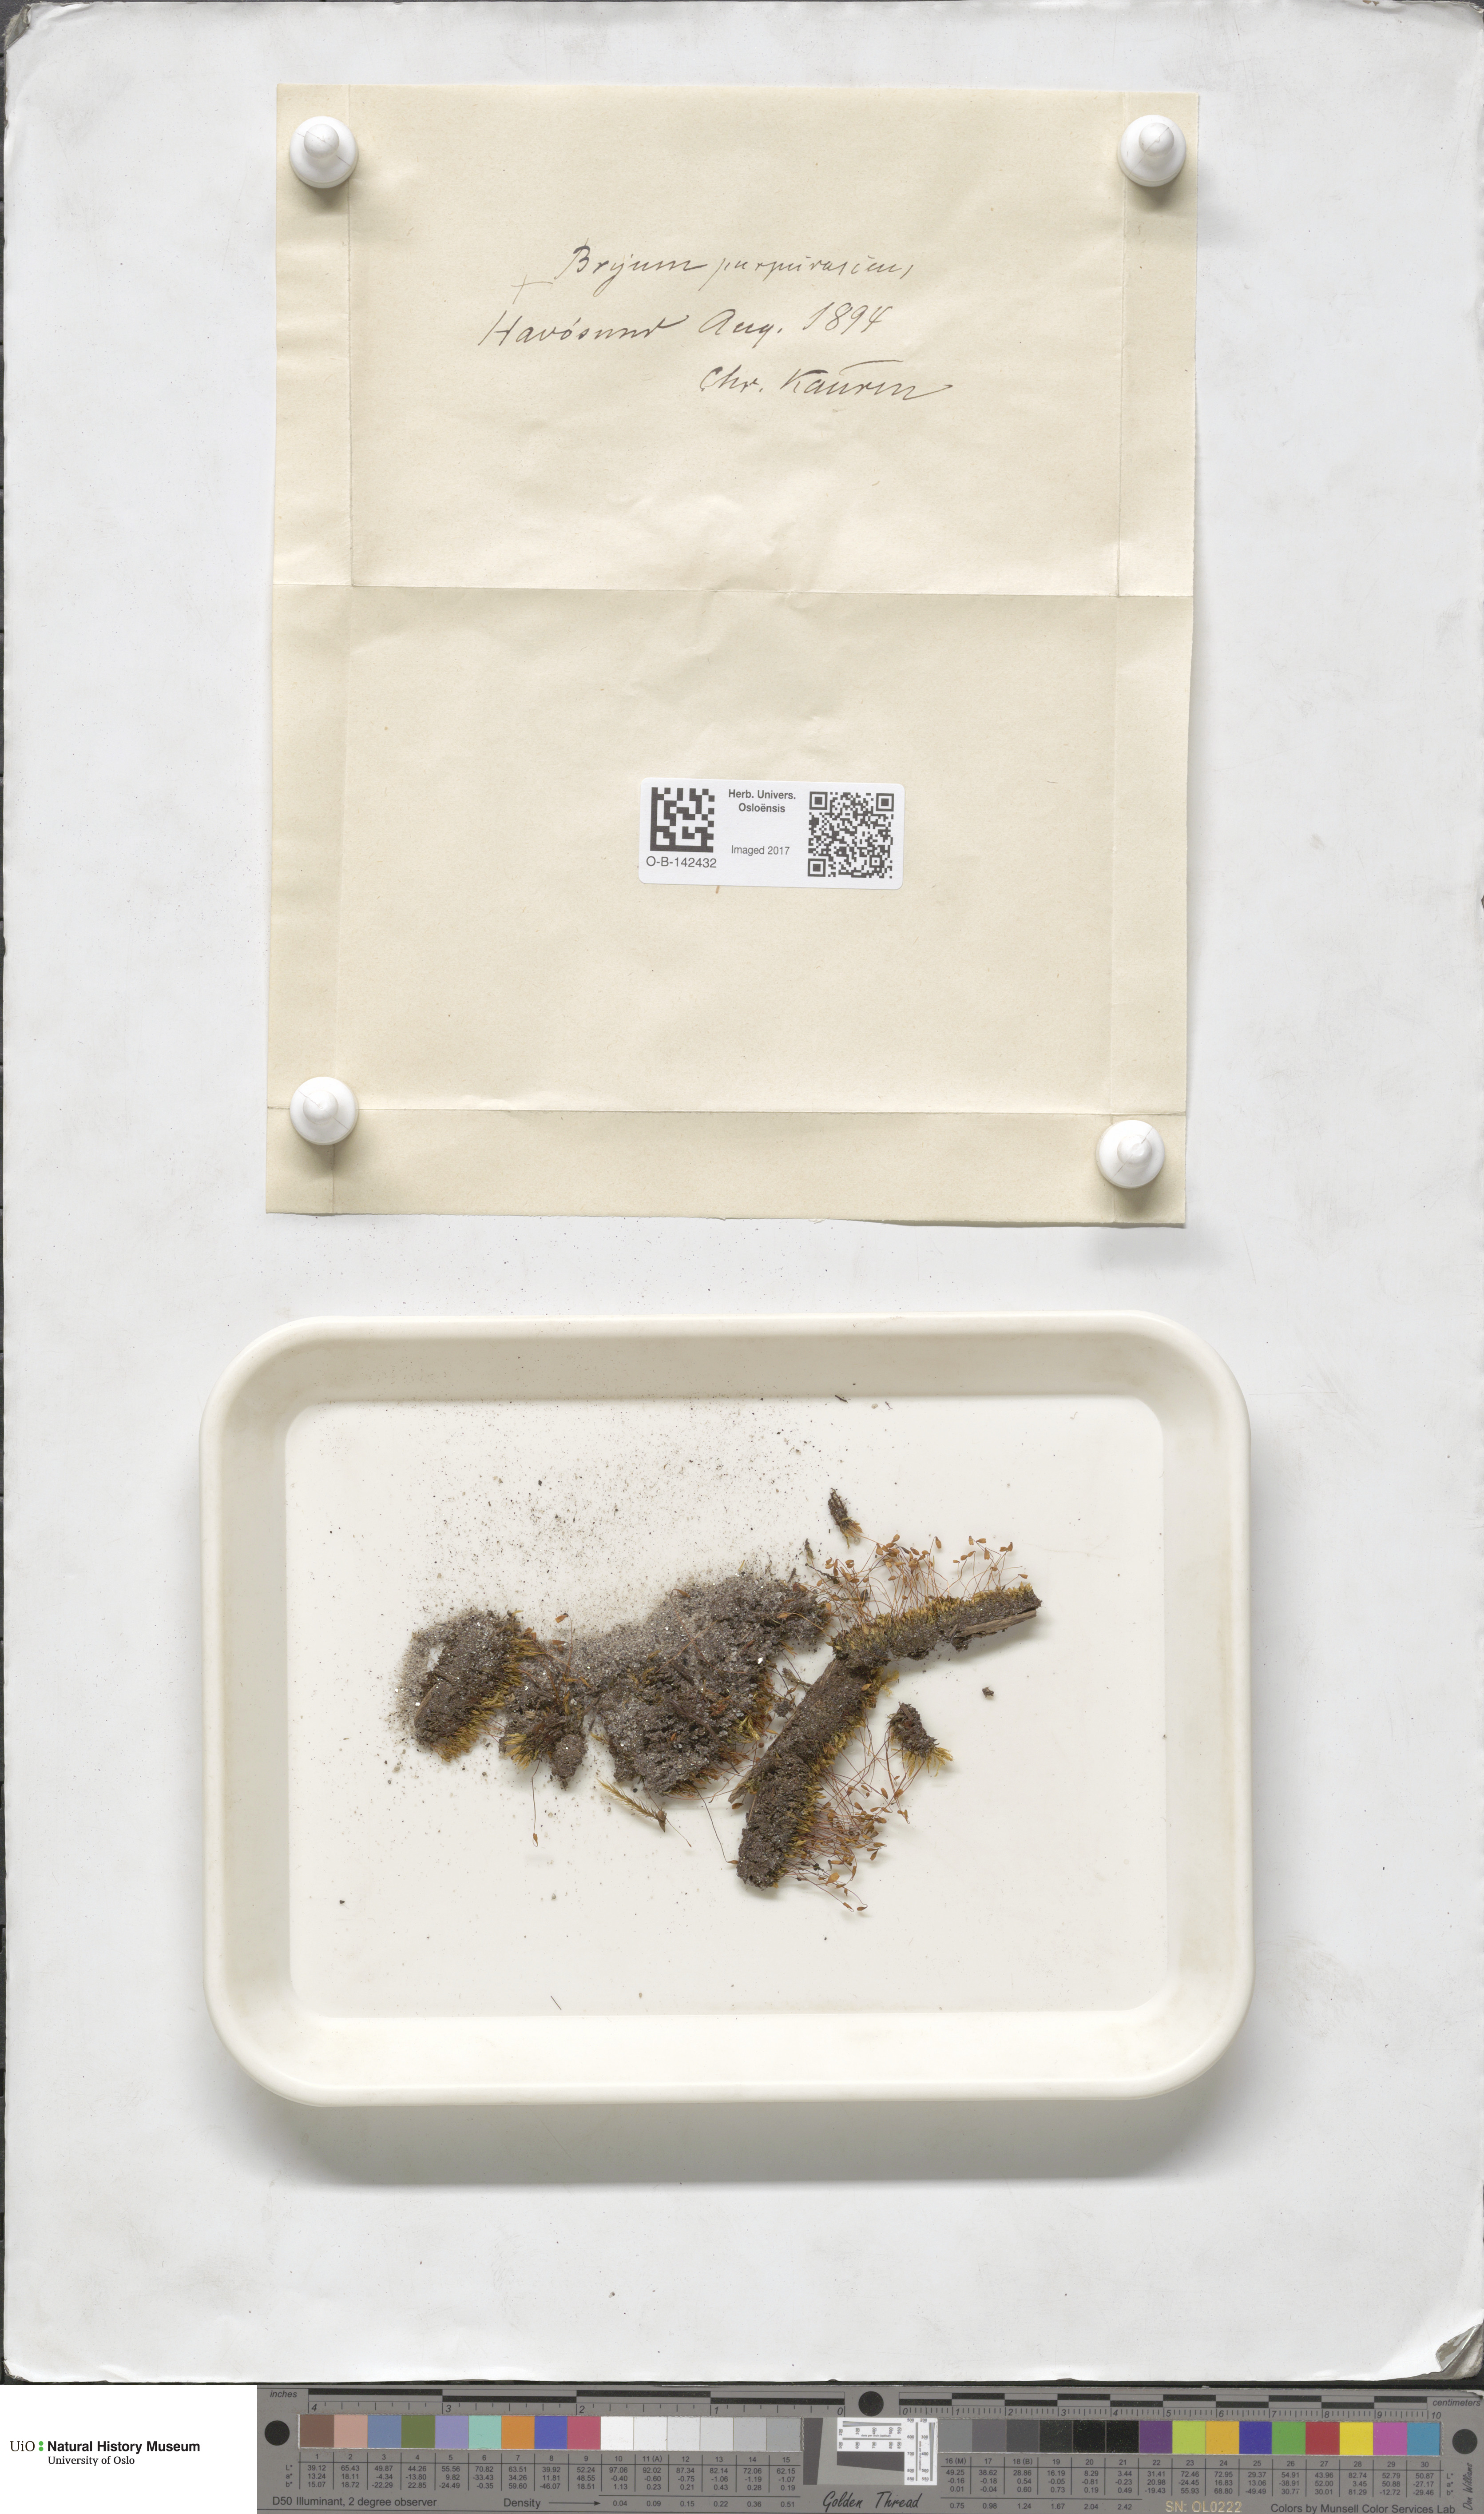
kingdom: Plantae
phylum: Bryophyta
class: Bryopsida
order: Bryales
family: Bryaceae
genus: Ptychostomum
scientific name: Ptychostomum arcticum
